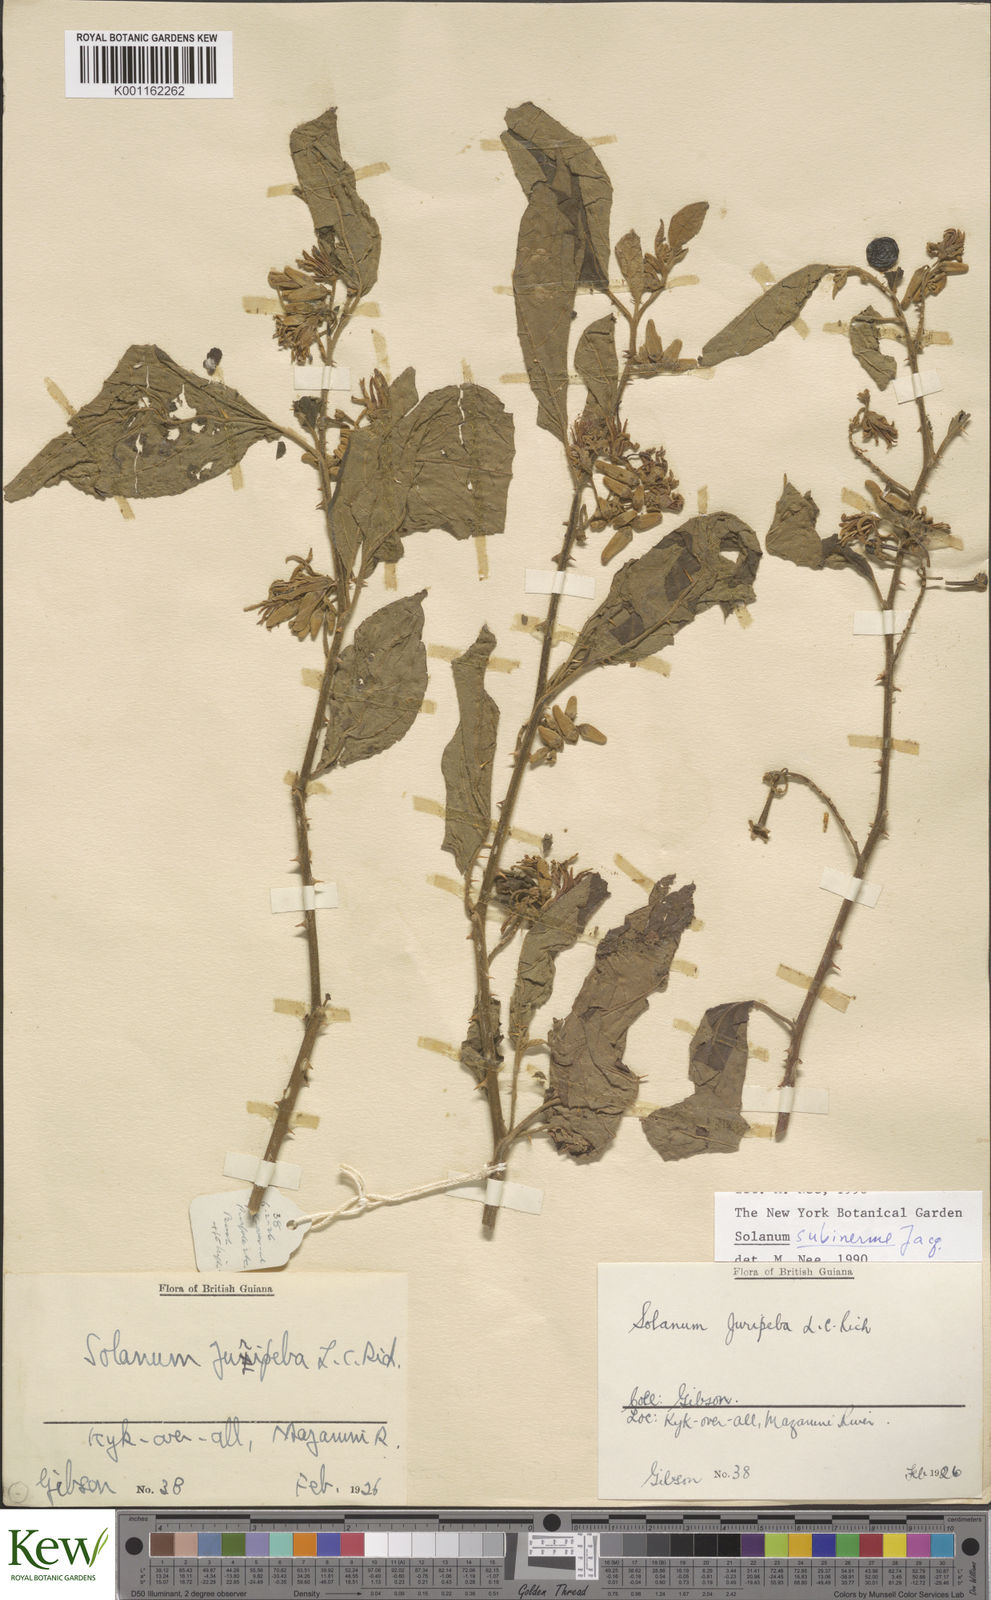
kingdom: Plantae
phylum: Tracheophyta
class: Magnoliopsida
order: Solanales
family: Solanaceae
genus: Solanum
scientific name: Solanum subinerme
